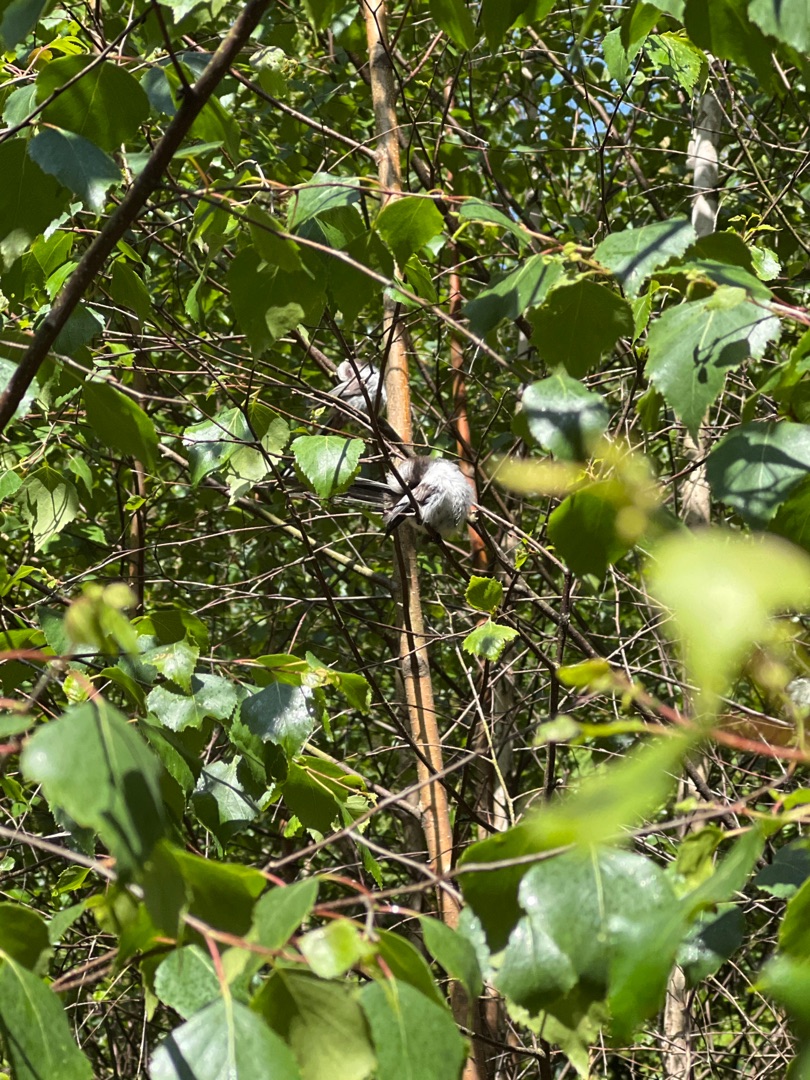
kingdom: Animalia
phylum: Chordata
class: Aves
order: Passeriformes
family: Aegithalidae
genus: Aegithalos
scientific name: Aegithalos caudatus
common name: Halemejse
